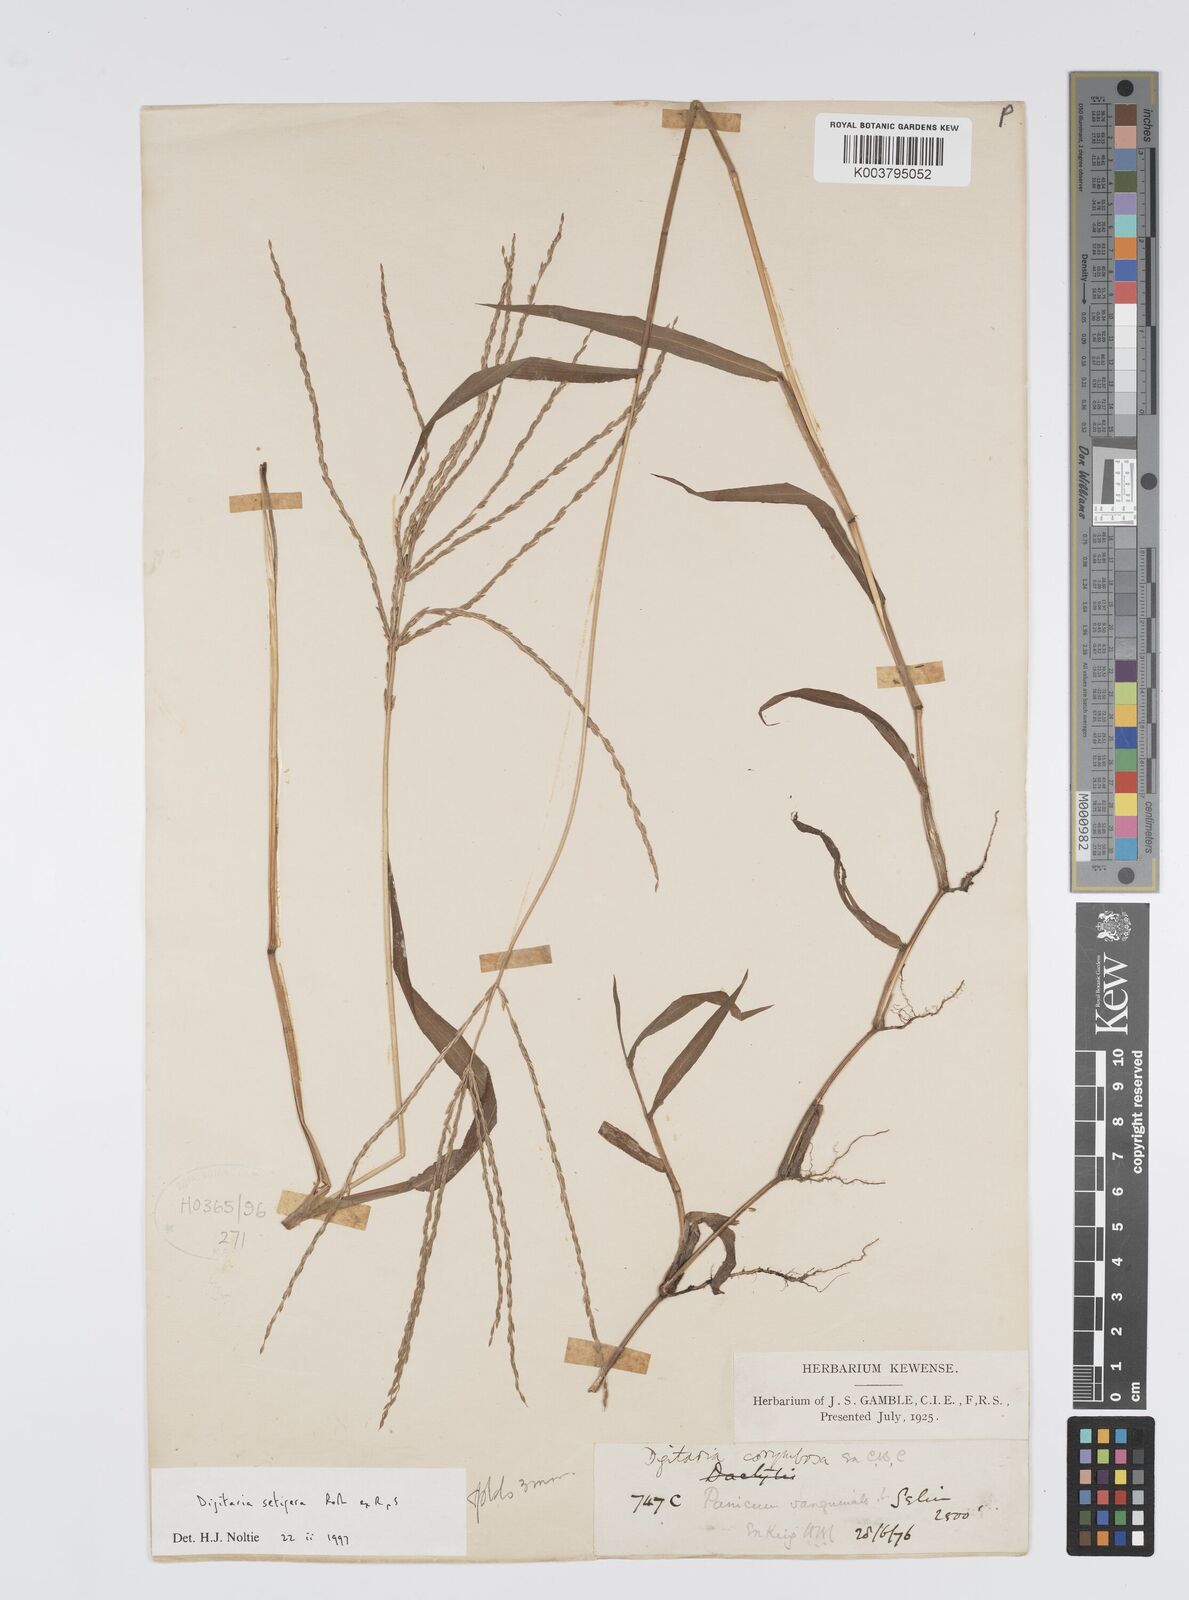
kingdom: Plantae
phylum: Tracheophyta
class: Liliopsida
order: Poales
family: Poaceae
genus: Digitaria
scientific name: Digitaria setigera
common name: East indian crabgrass
